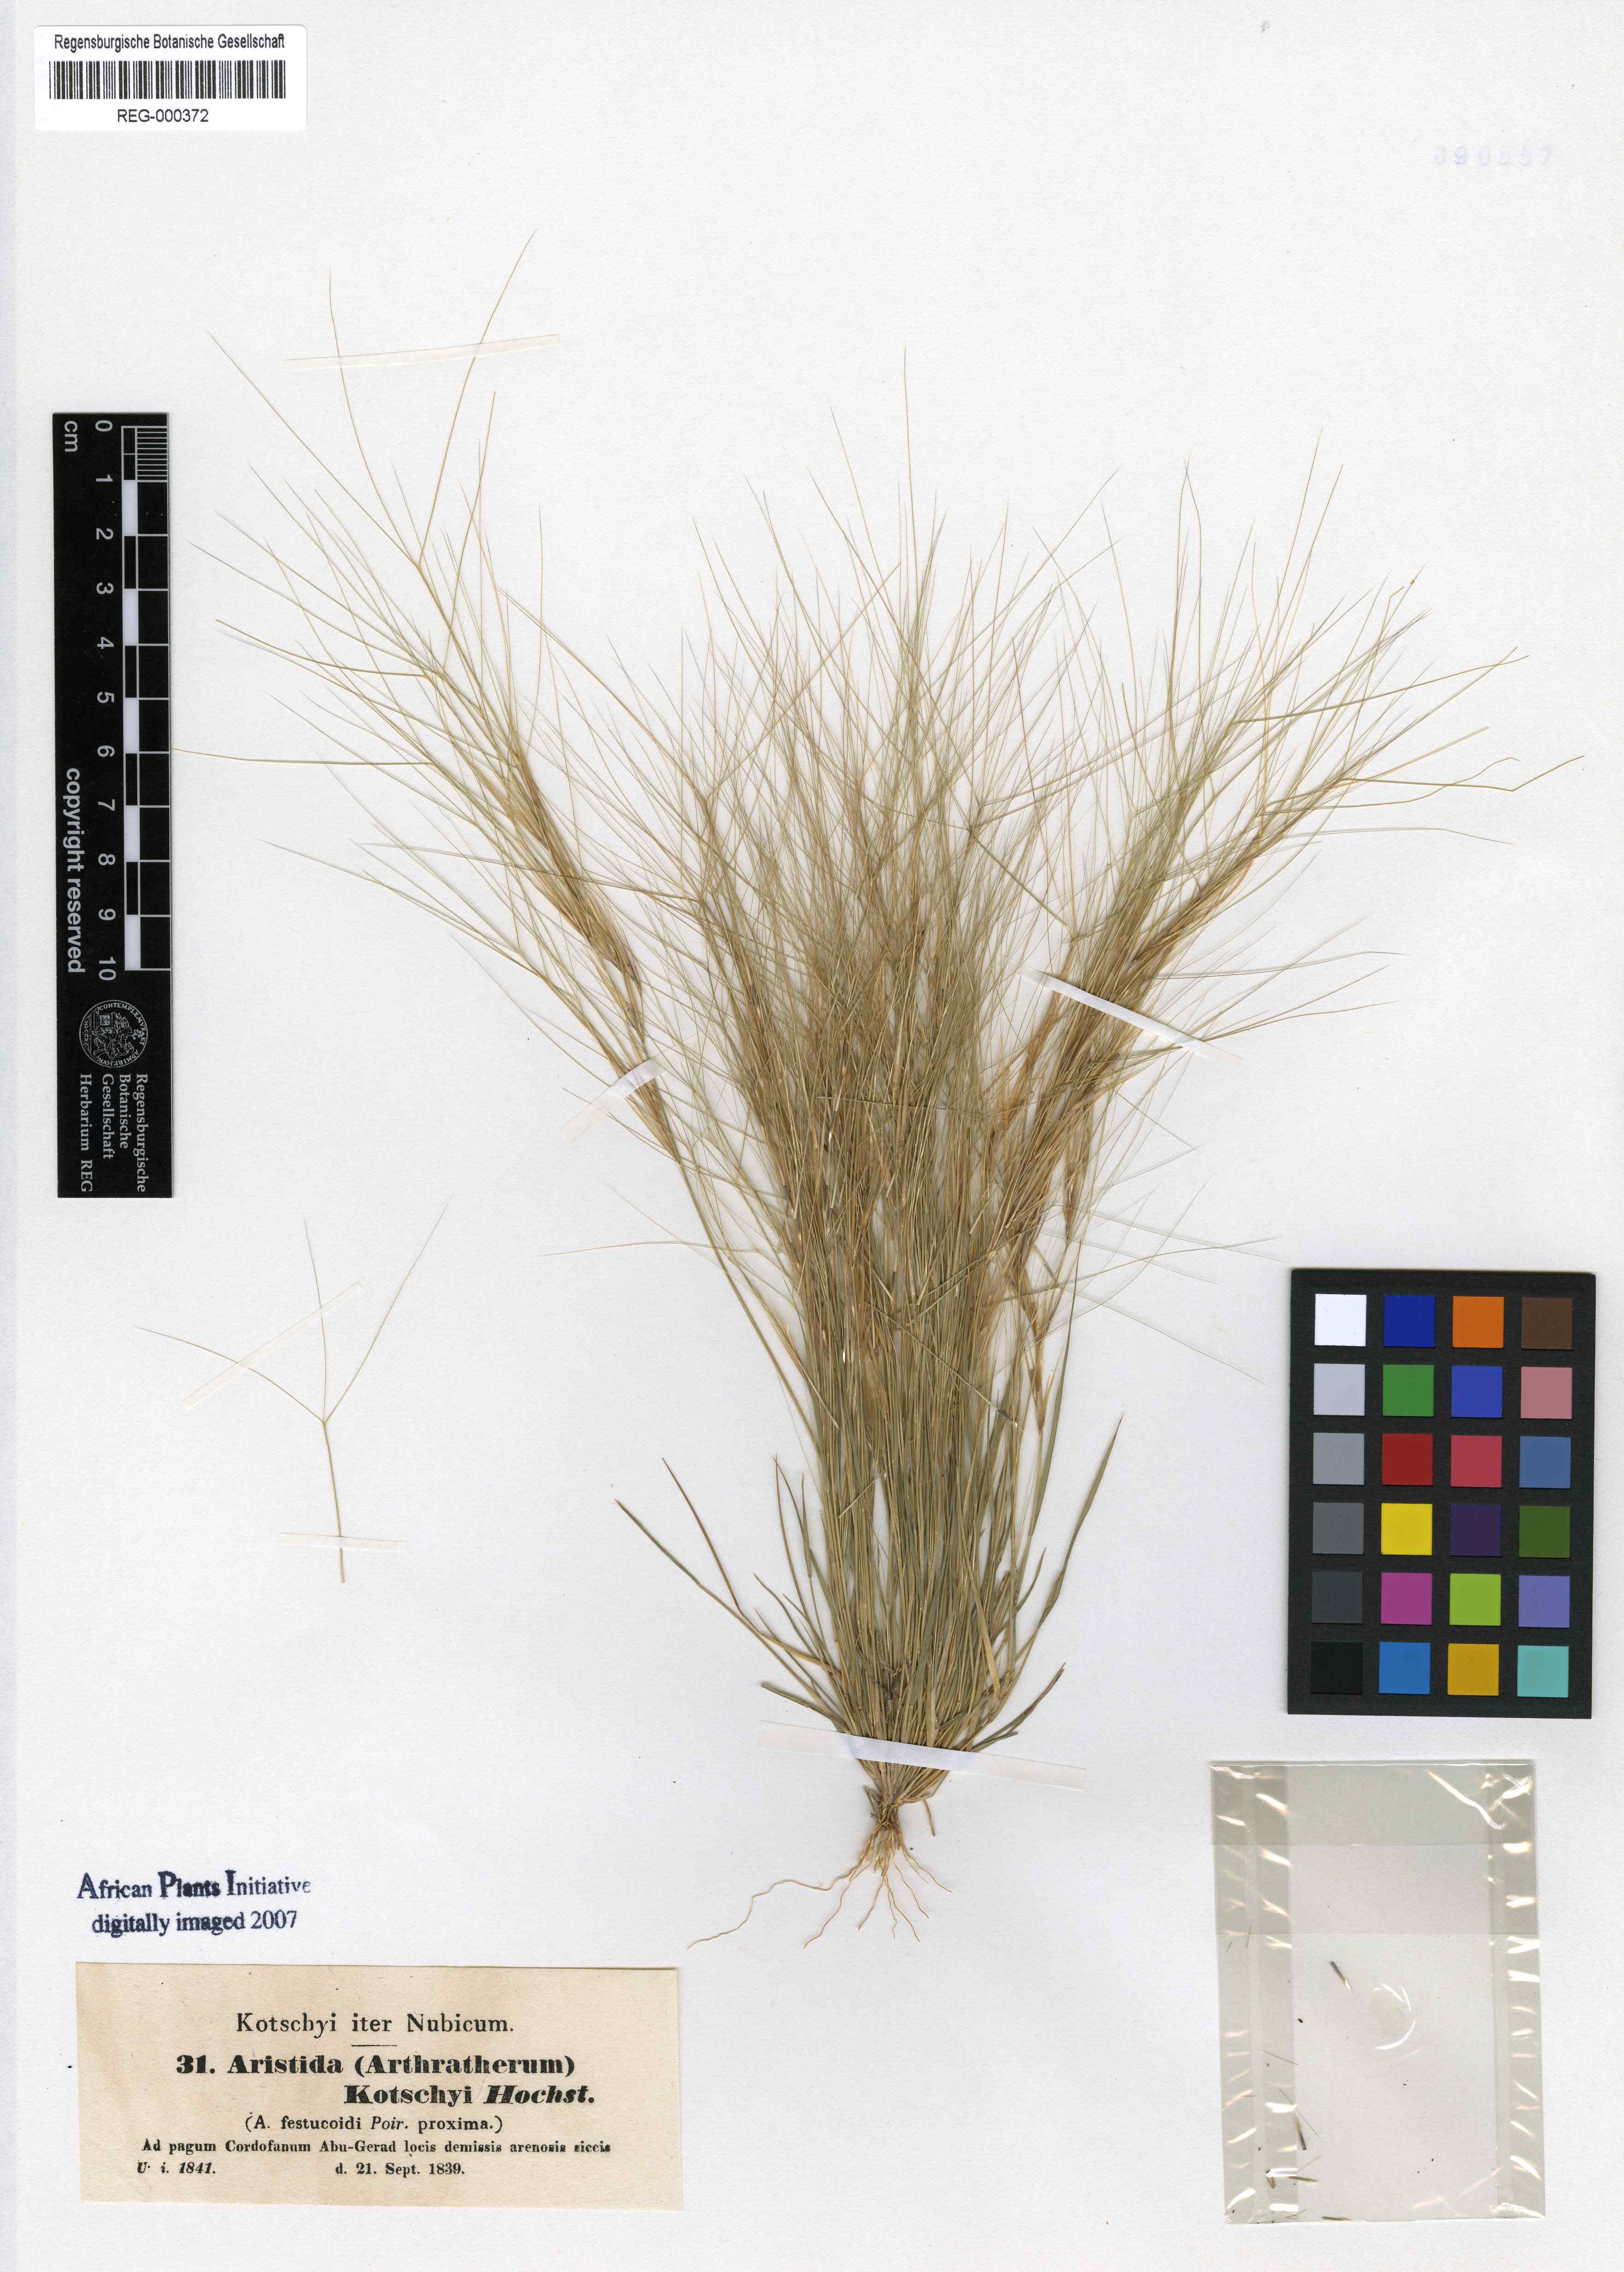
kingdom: Plantae
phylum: Tracheophyta
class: Liliopsida
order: Poales
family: Poaceae
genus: Aristida
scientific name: Aristida funiculata
